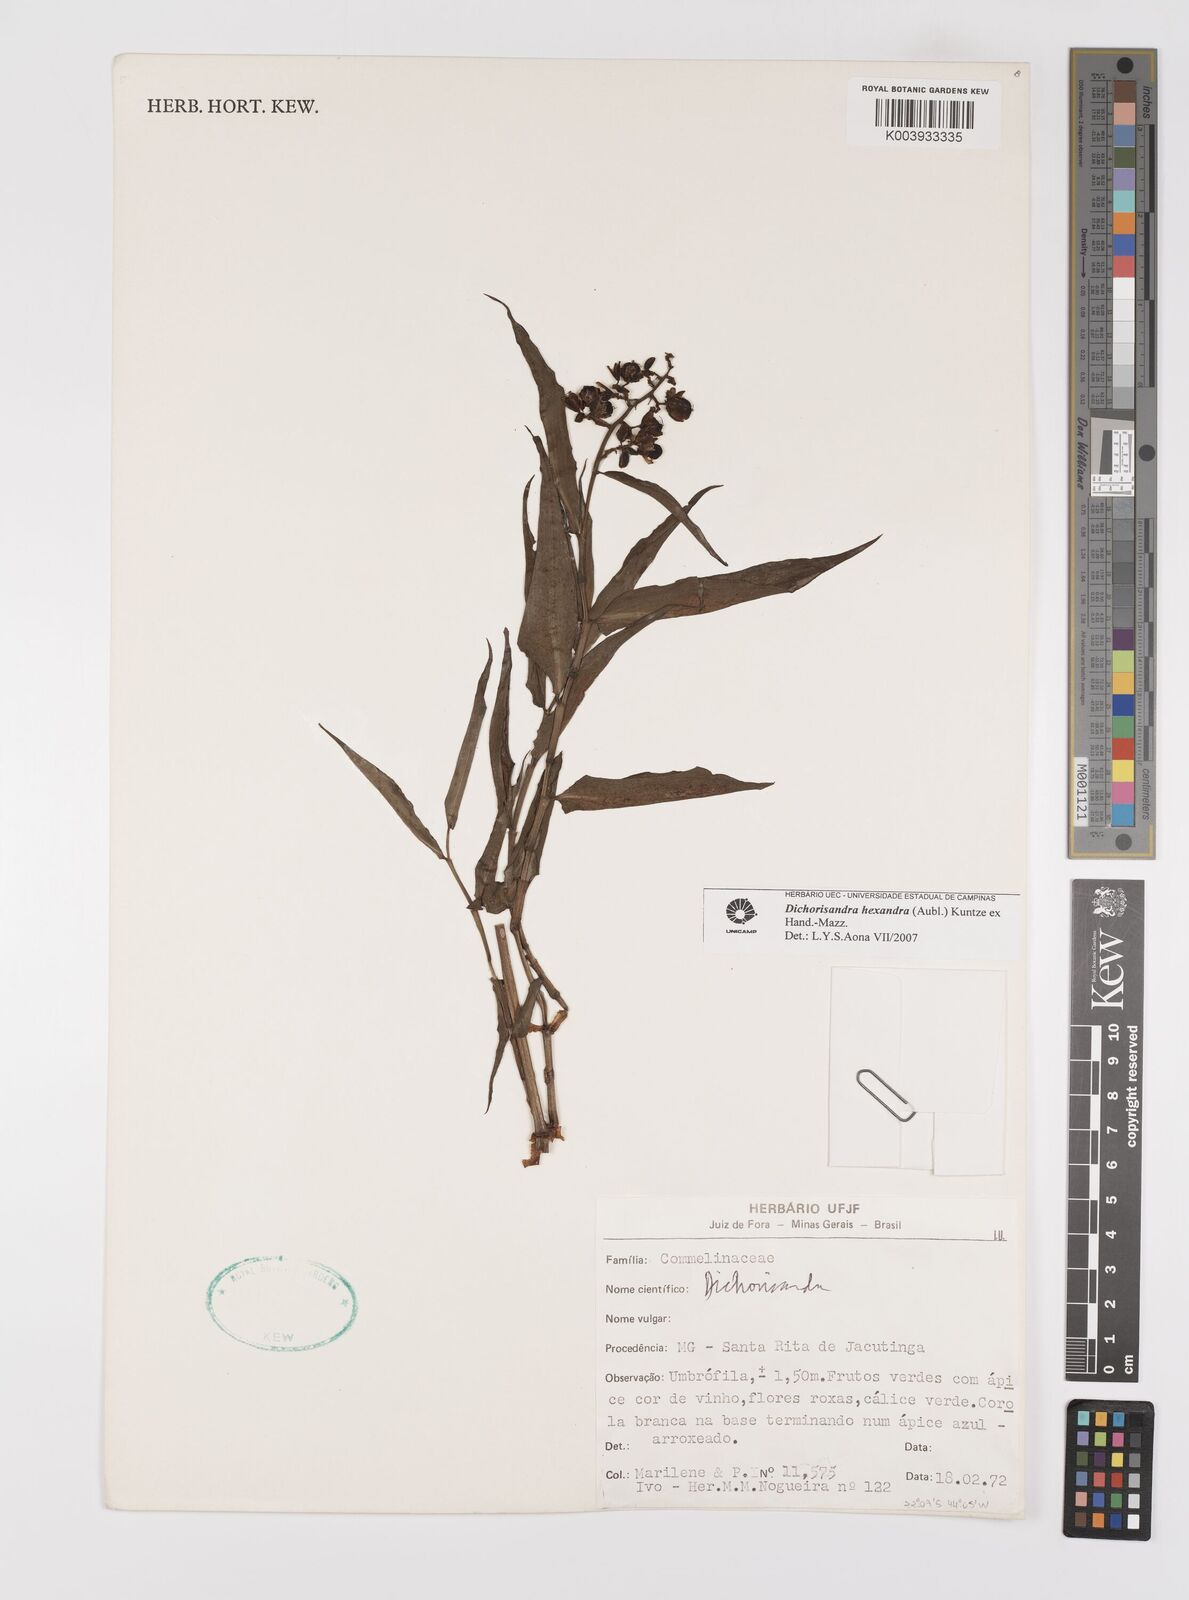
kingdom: Plantae
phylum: Tracheophyta
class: Liliopsida
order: Commelinales
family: Commelinaceae
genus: Dichorisandra
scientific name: Dichorisandra
